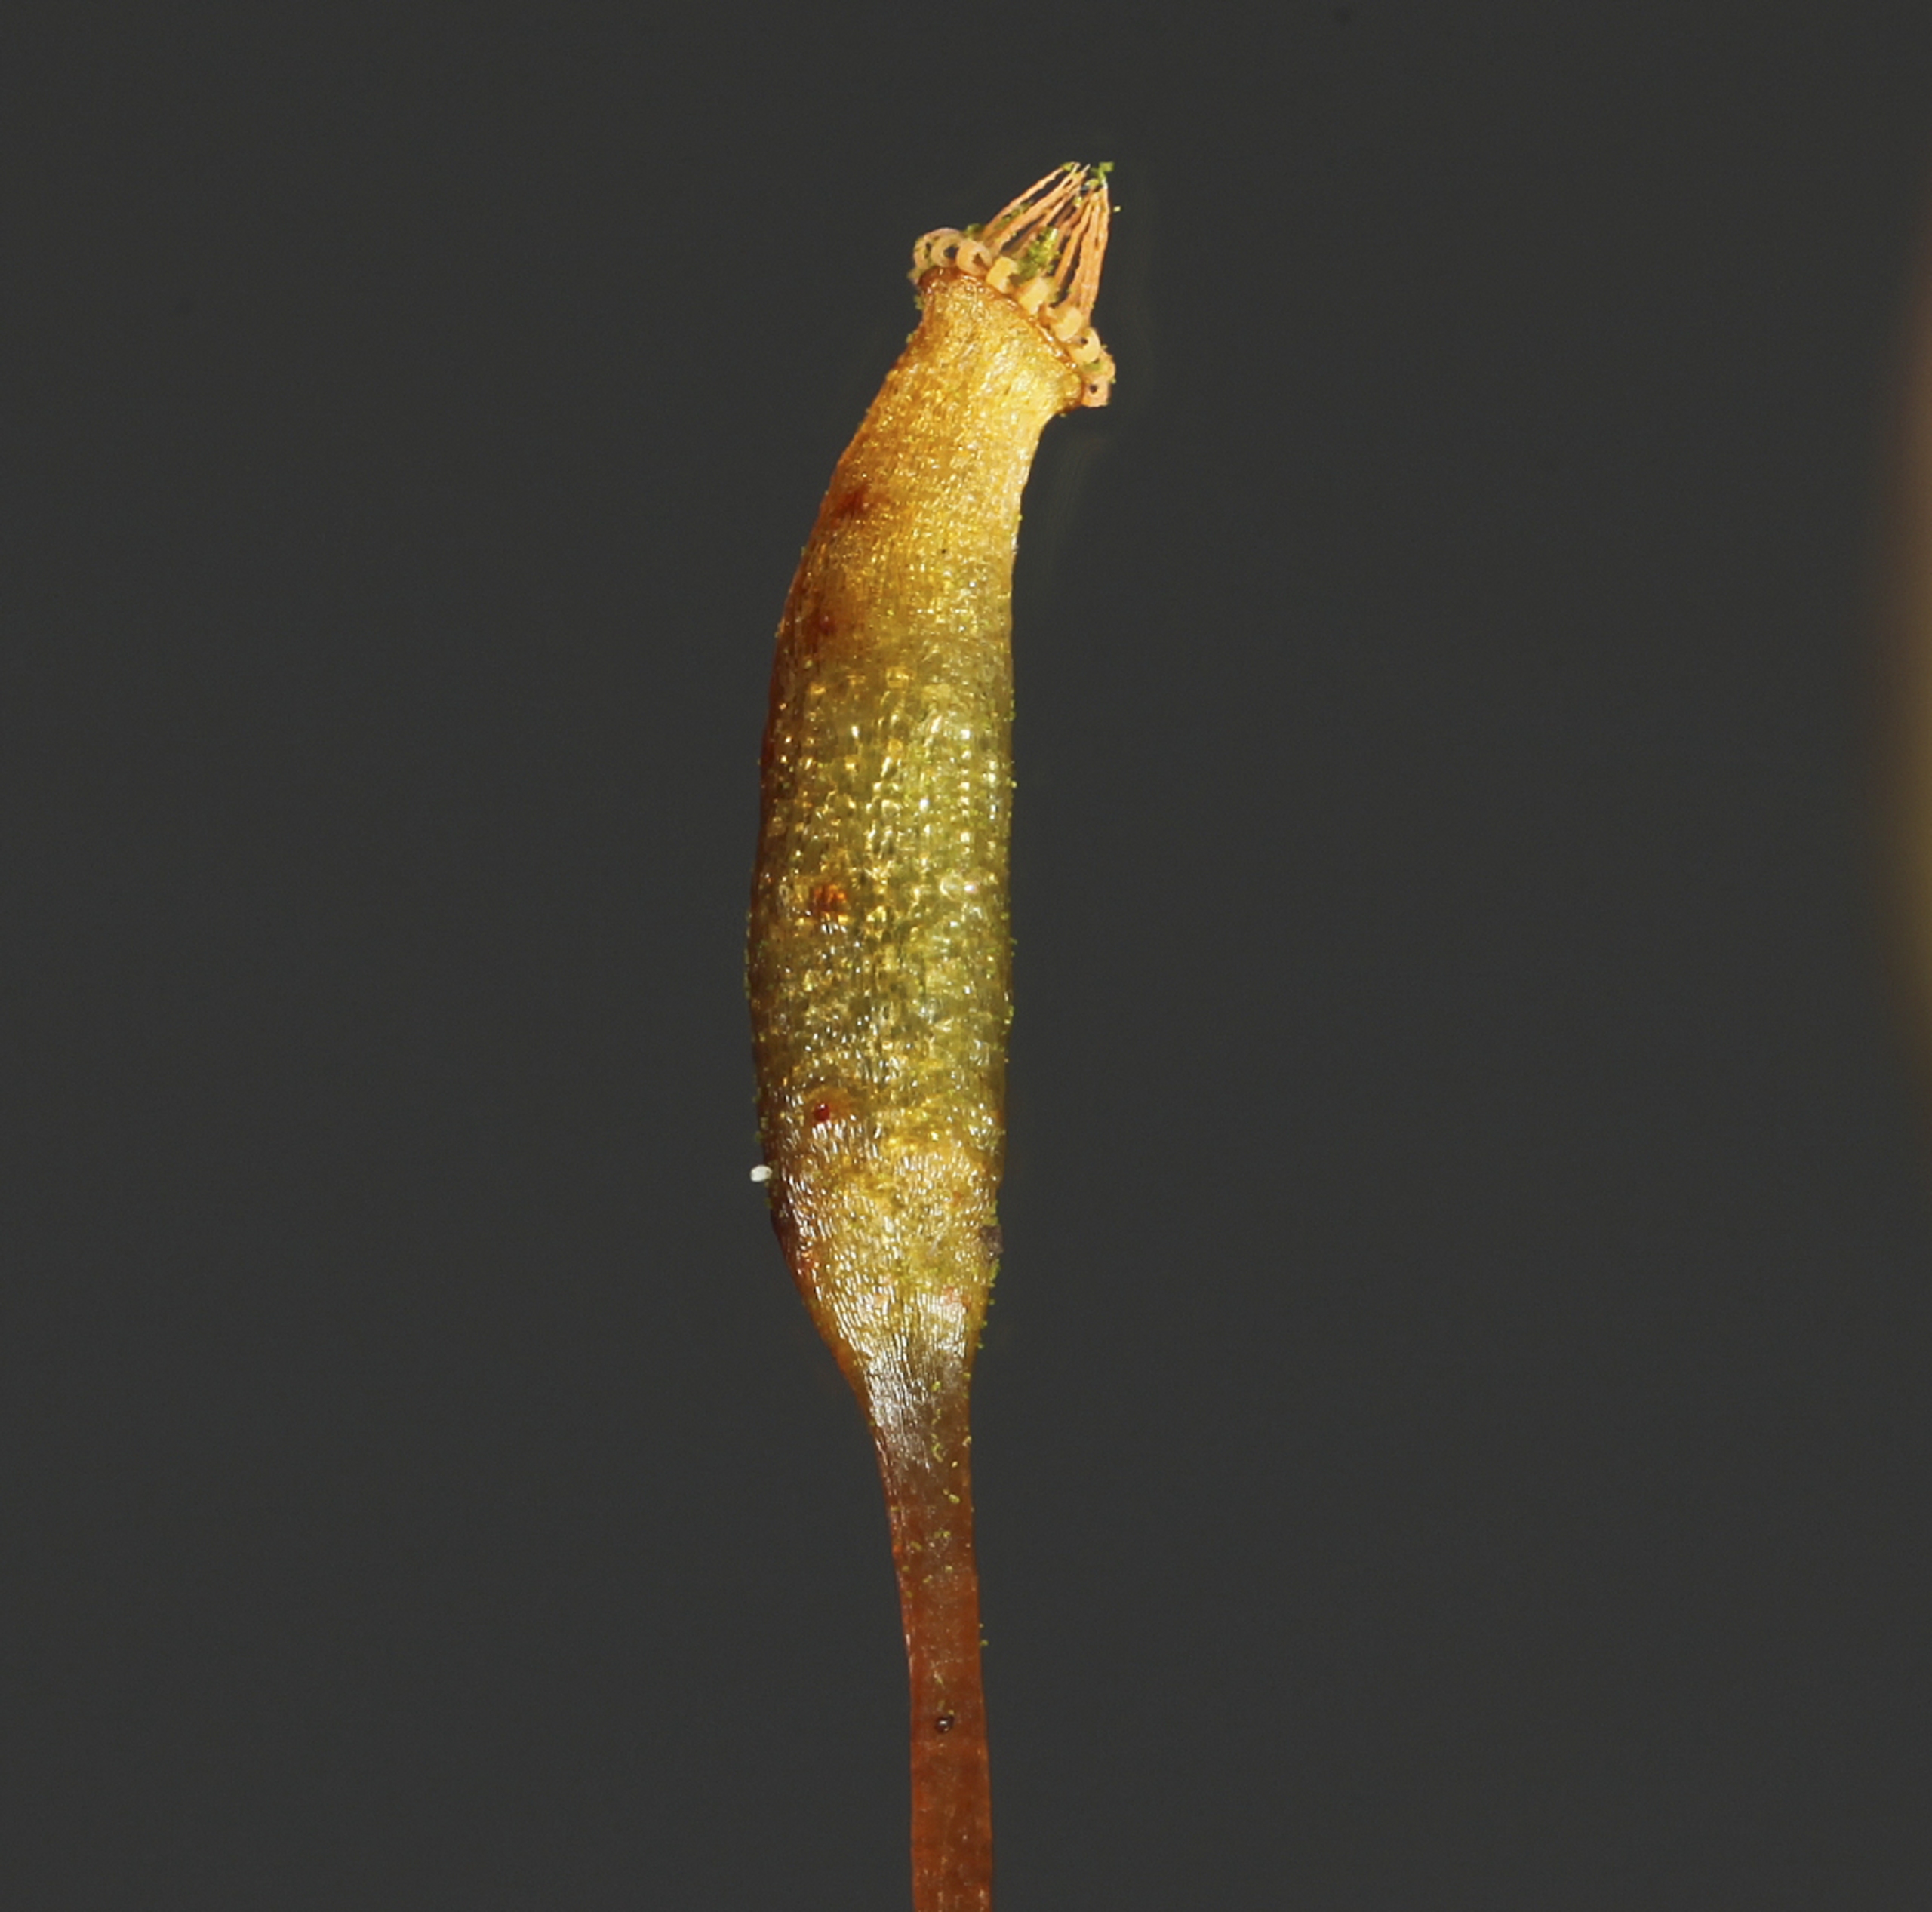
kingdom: Plantae
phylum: Bryophyta
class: Bryopsida
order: Hypnales
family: Leskeaceae
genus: Leskea
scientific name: Leskea polycarpa
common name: Mat lærkemos
